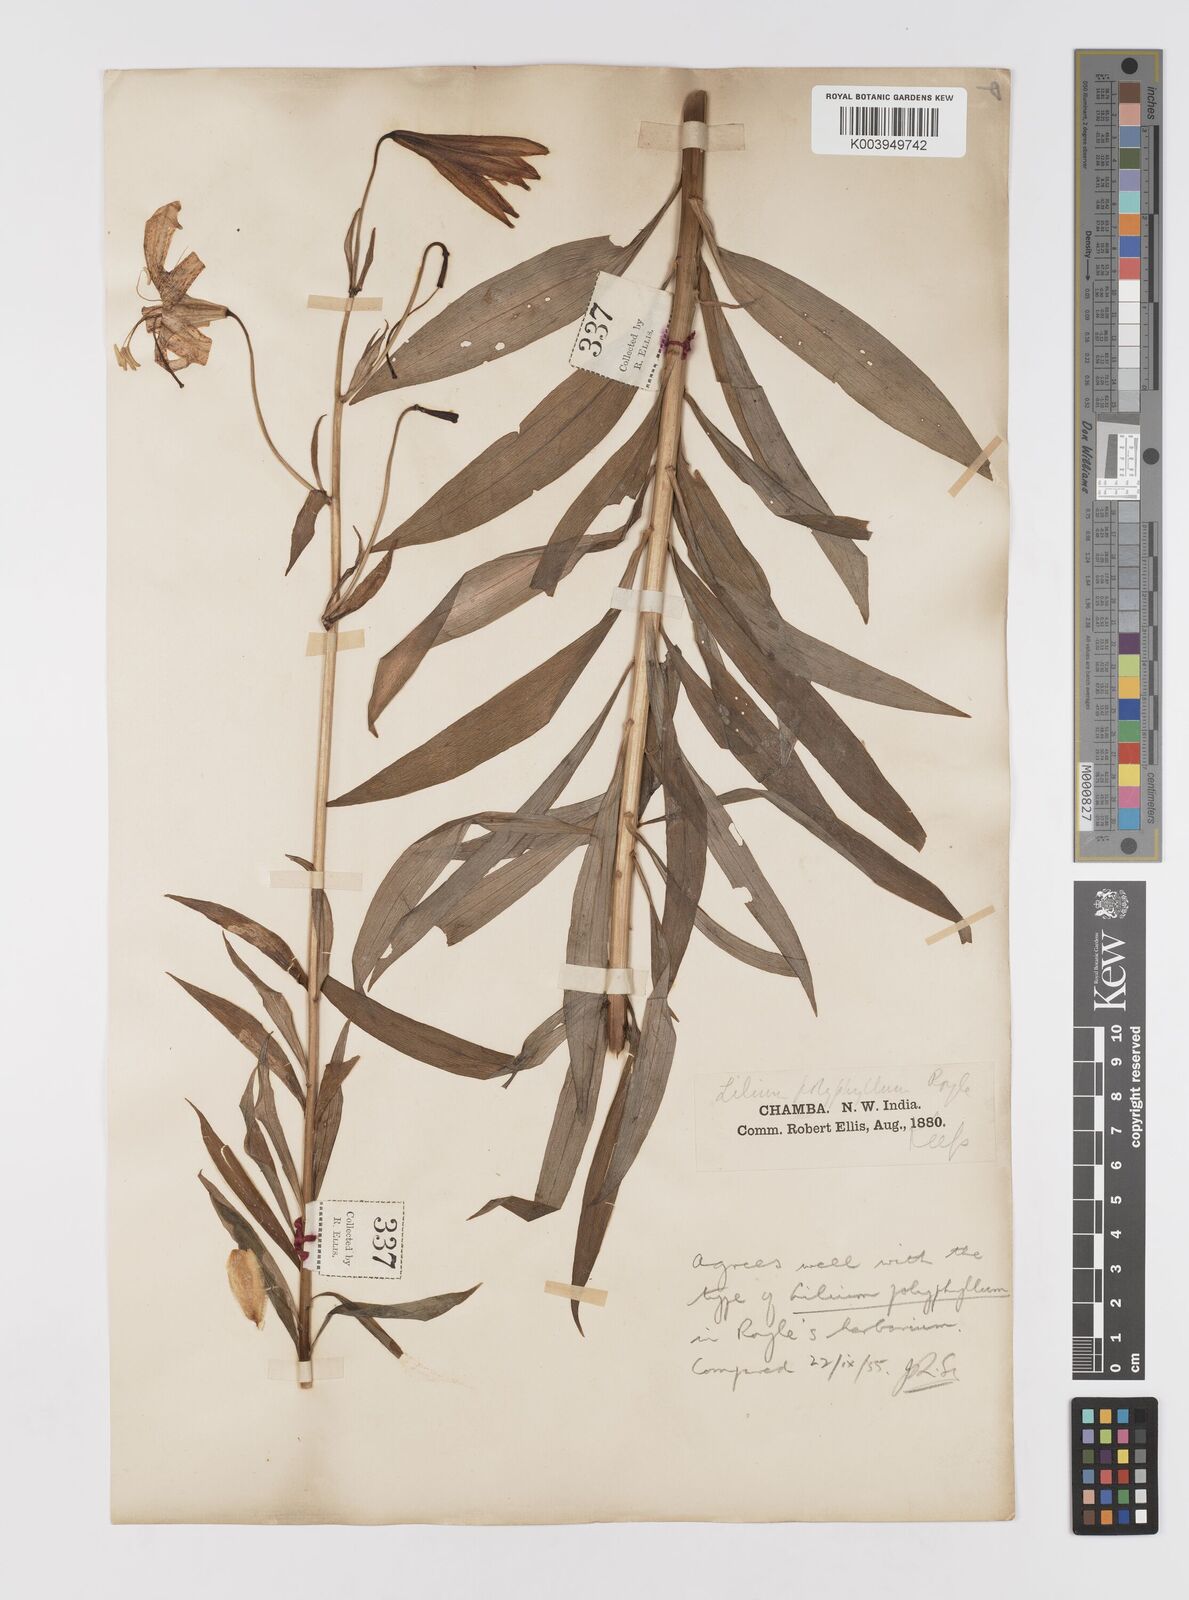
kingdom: Plantae
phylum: Tracheophyta
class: Liliopsida
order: Liliales
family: Liliaceae
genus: Lilium
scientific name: Lilium polyphyllum
